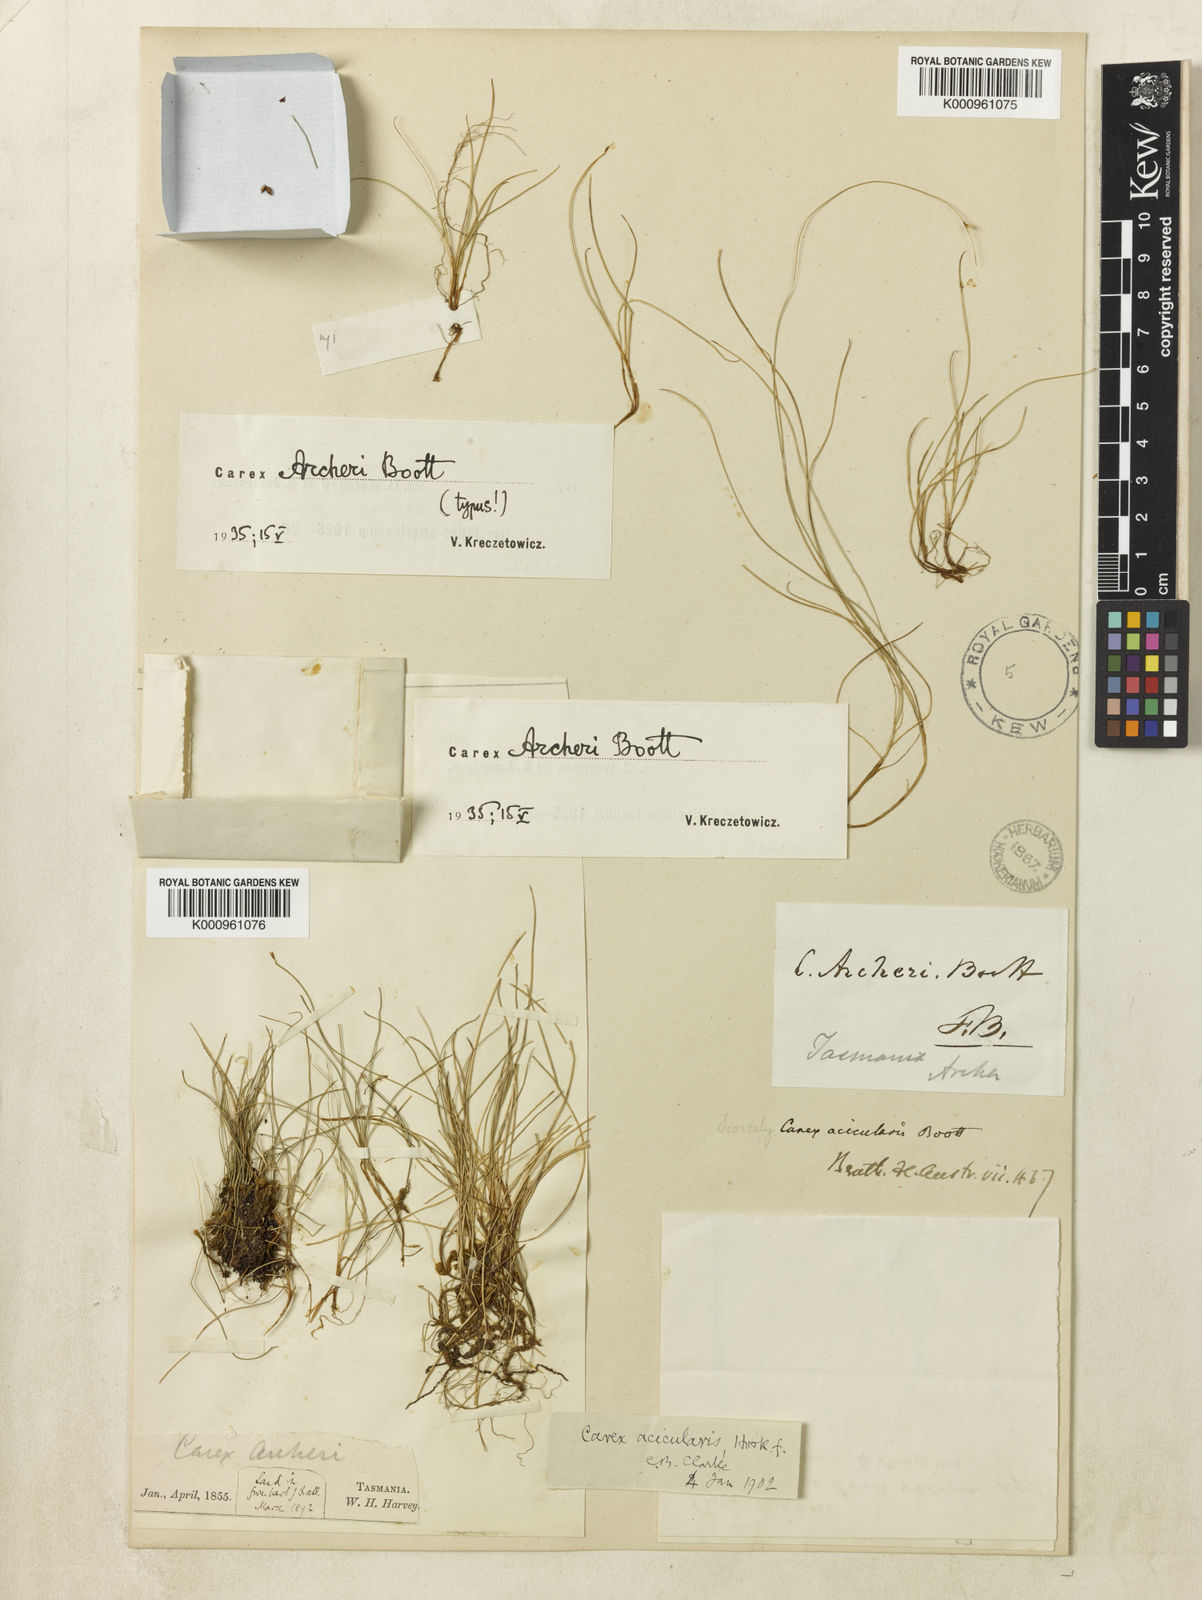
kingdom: Plantae
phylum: Tracheophyta
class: Liliopsida
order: Poales
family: Cyperaceae
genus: Carex
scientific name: Carex acicularis
